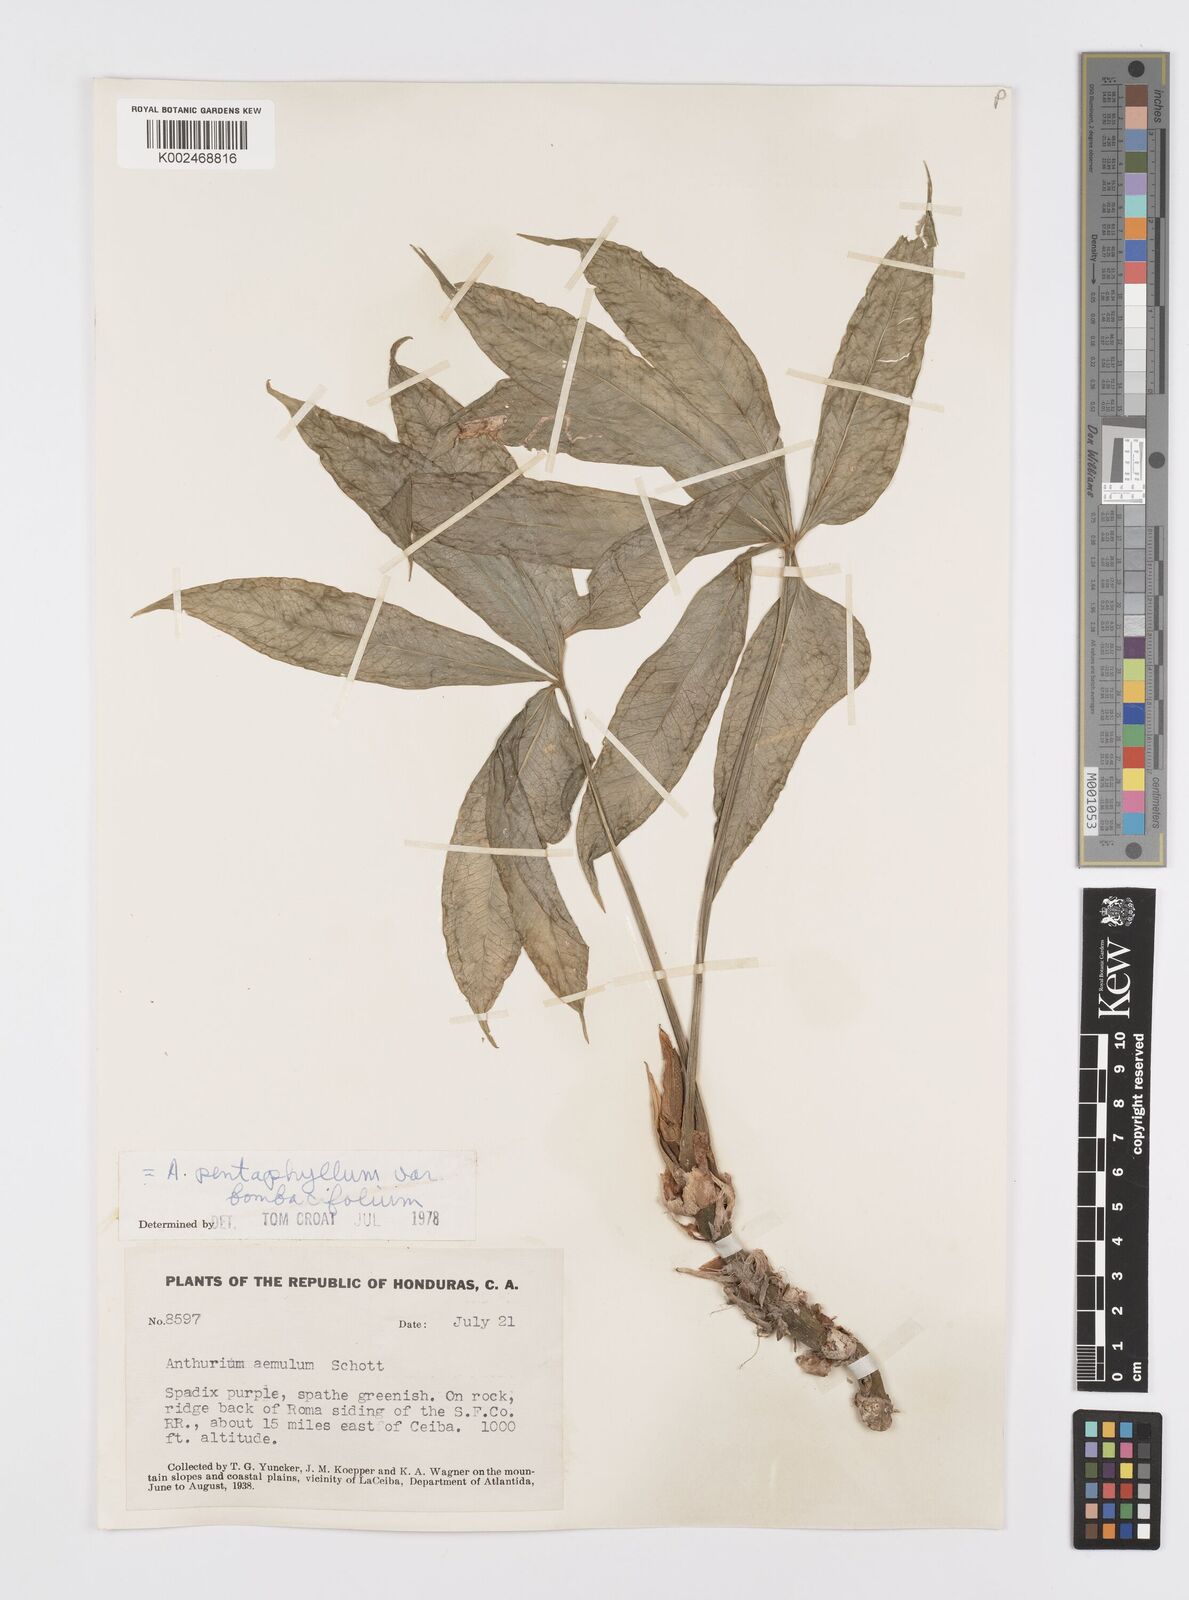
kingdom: Plantae
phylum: Tracheophyta
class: Liliopsida
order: Alismatales
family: Araceae
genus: Anthurium
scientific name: Anthurium pentaphyllum
